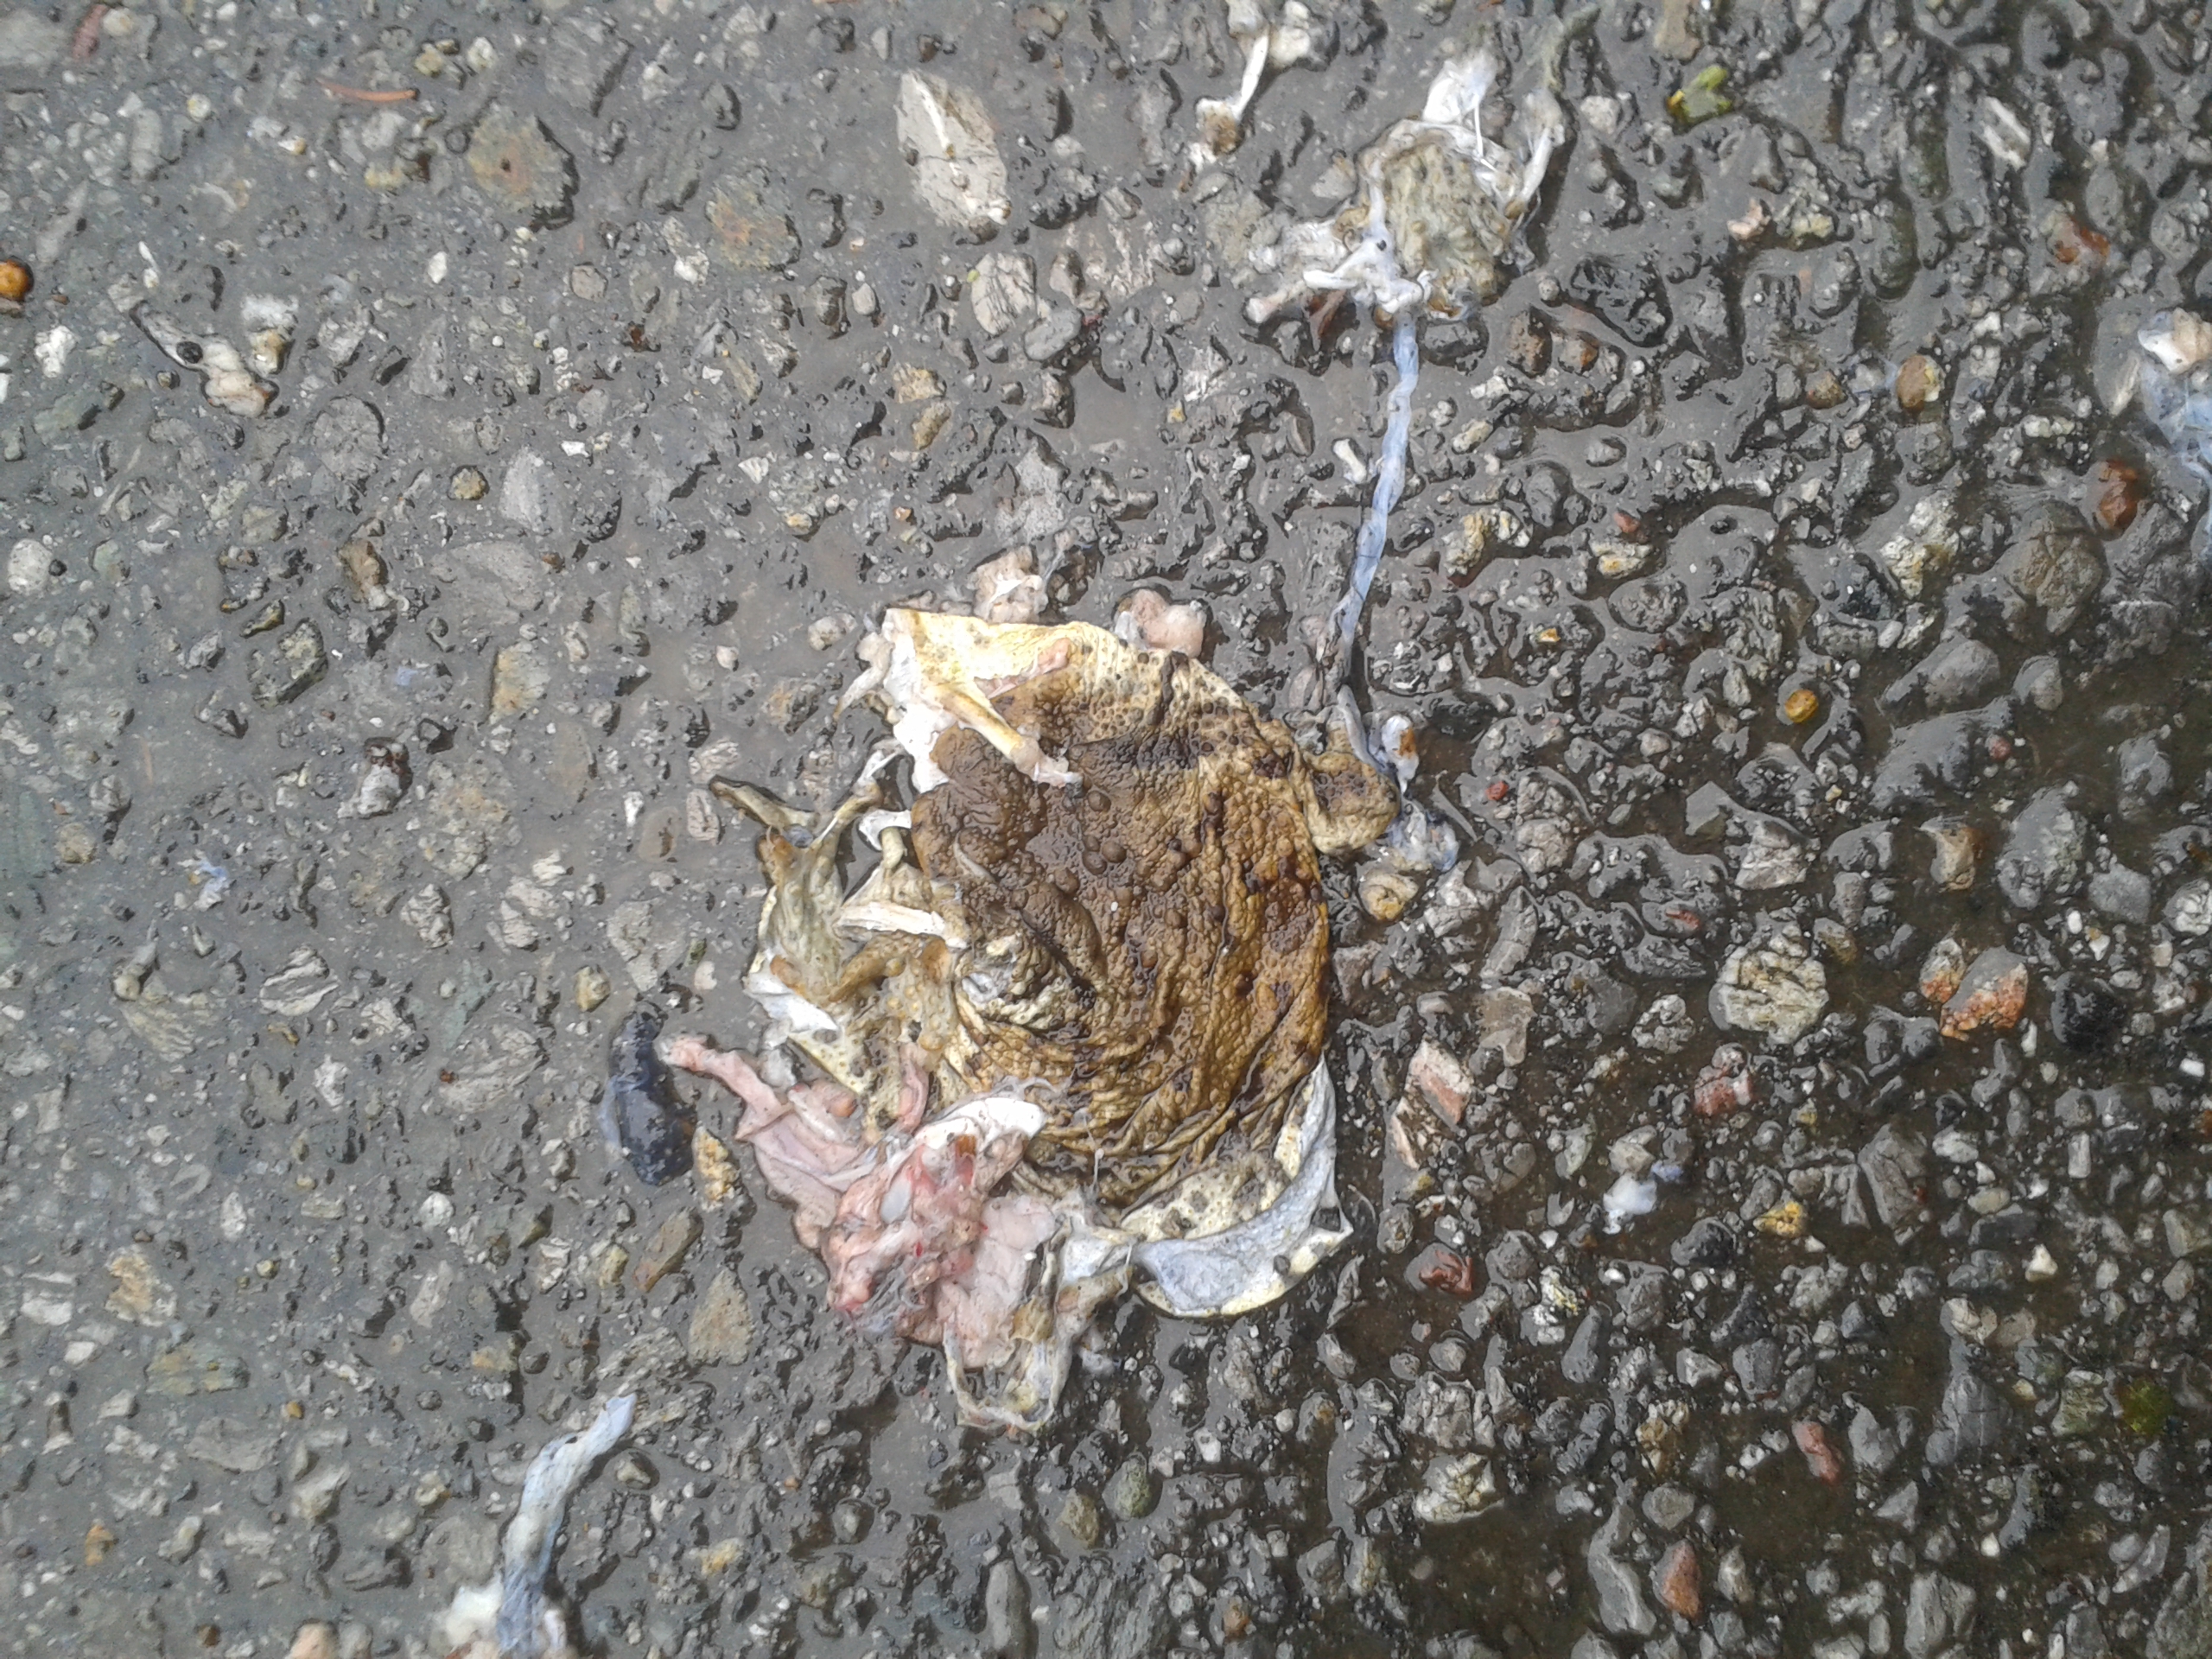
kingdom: Animalia
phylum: Chordata
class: Amphibia
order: Anura
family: Bufonidae
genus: Bufo
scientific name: Bufo bufo
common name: Common toad
